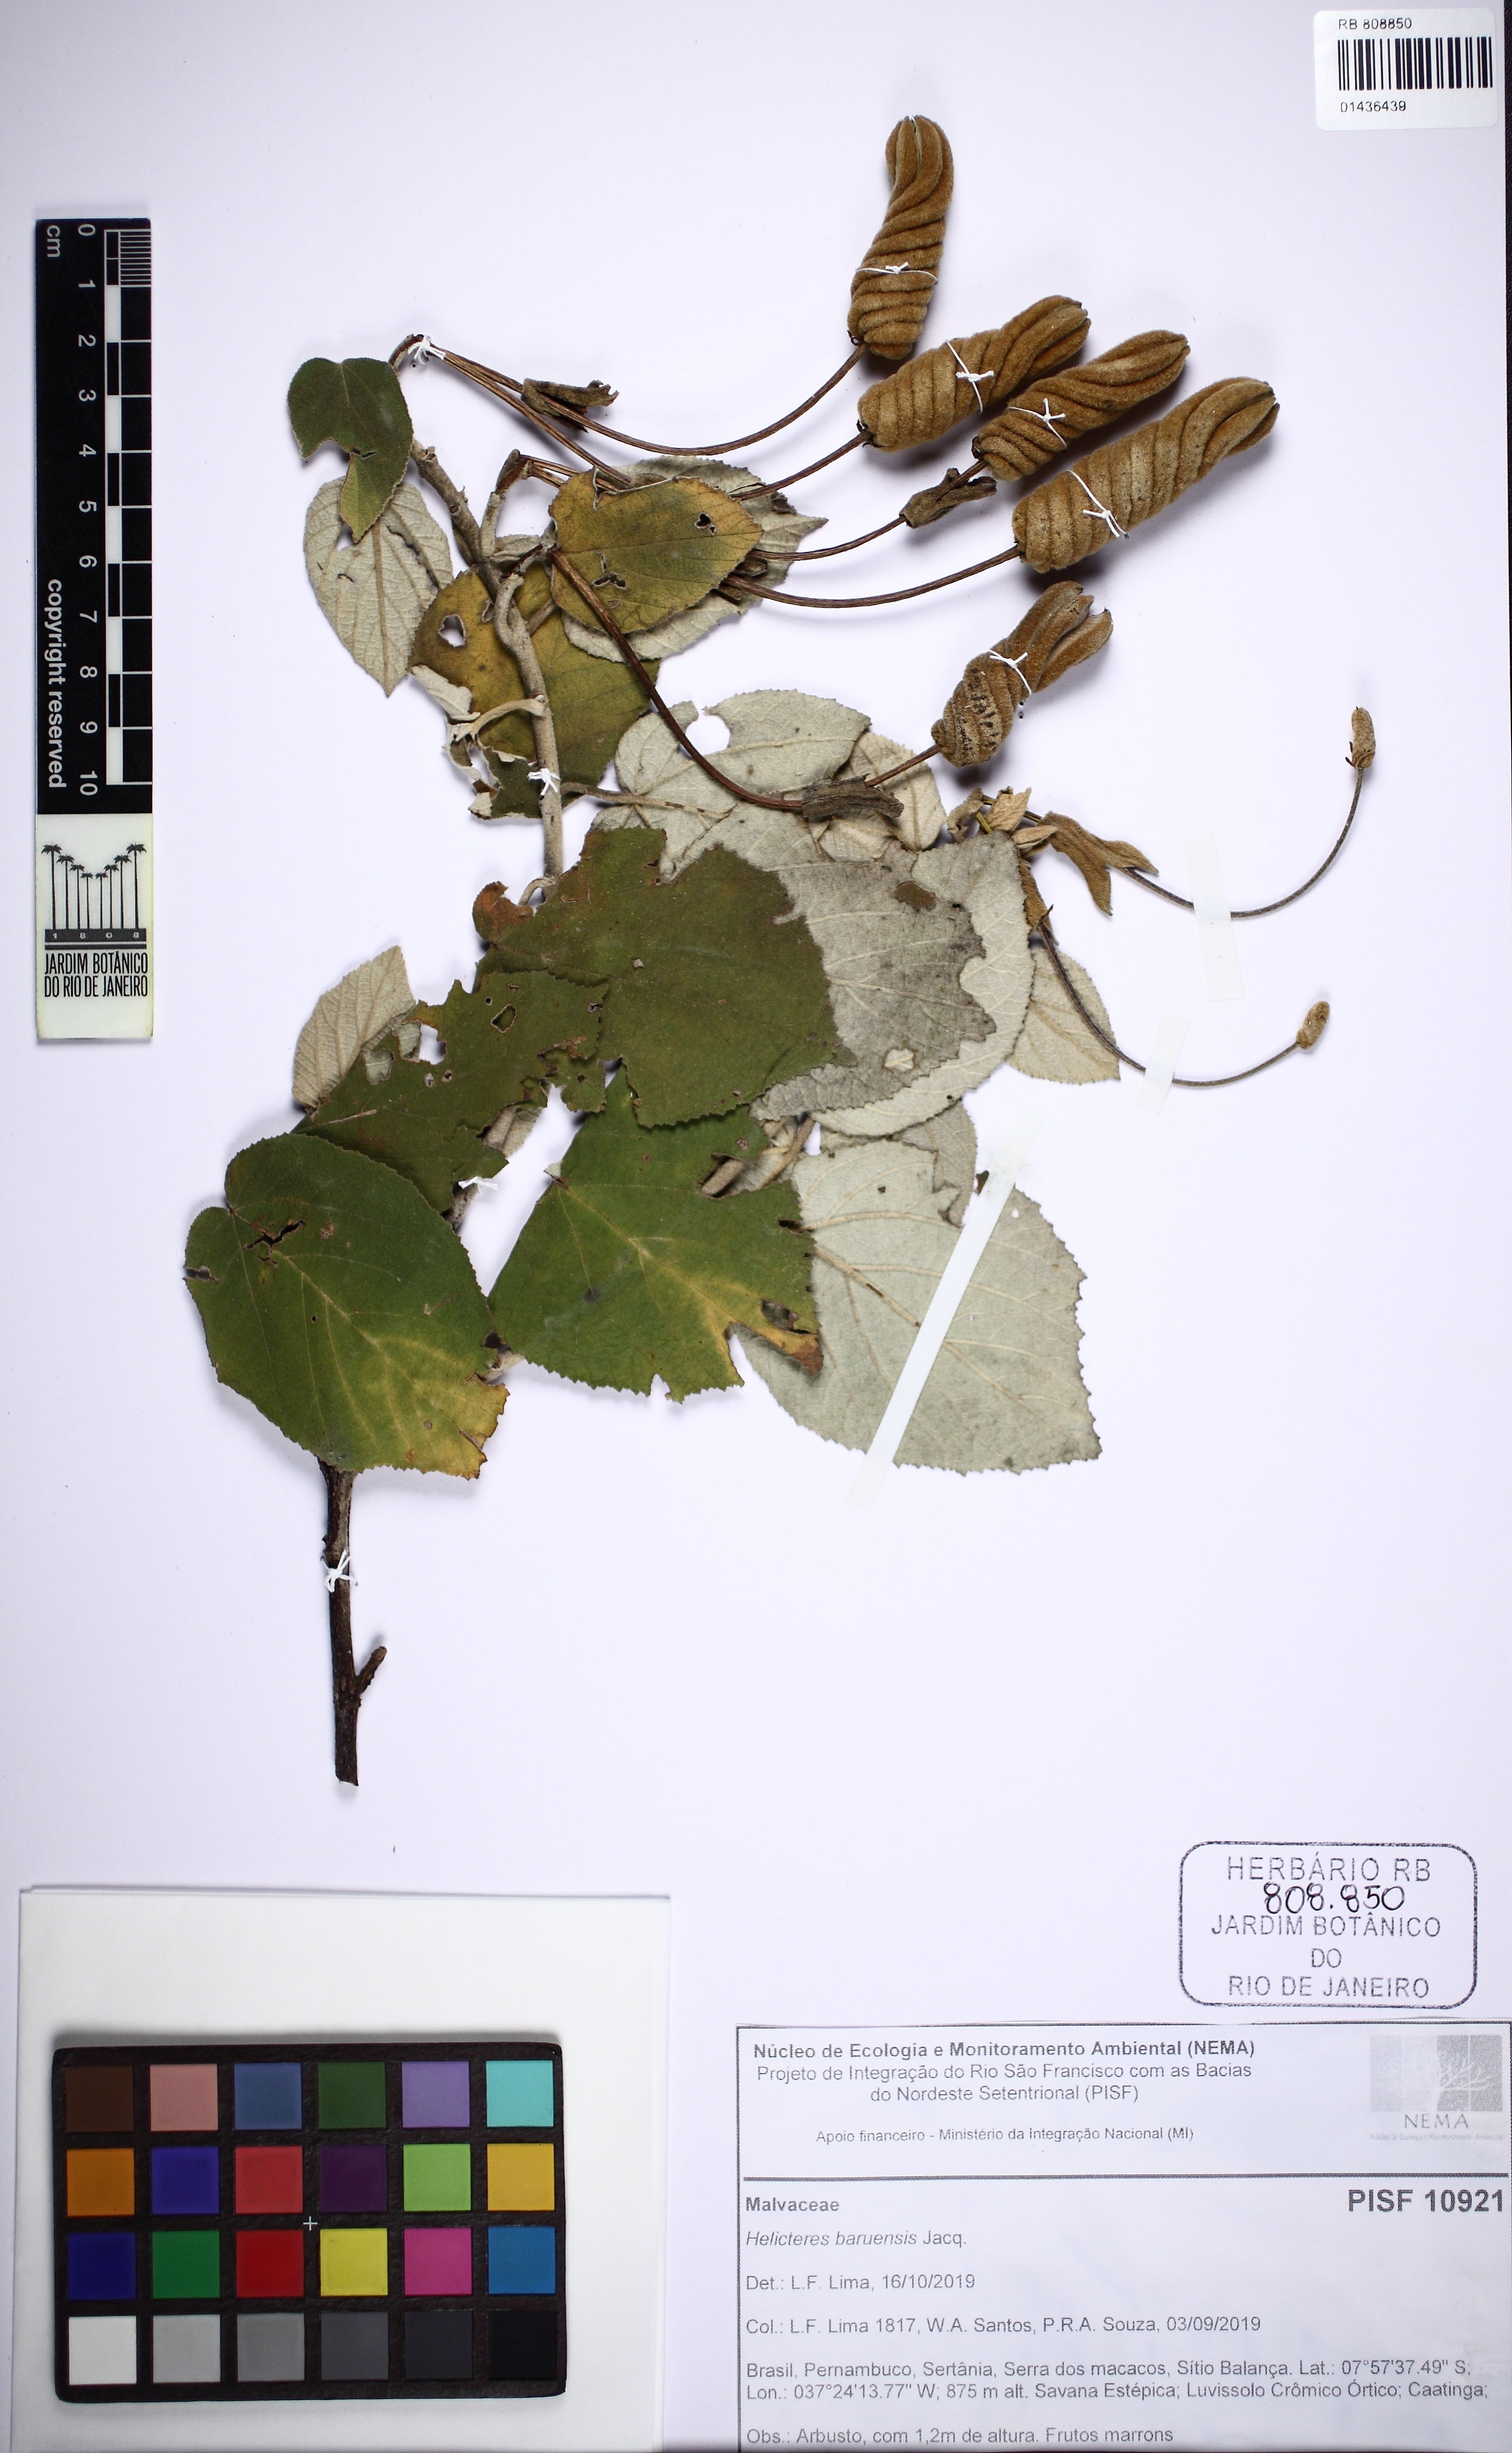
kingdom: Plantae
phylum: Tracheophyta
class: Magnoliopsida
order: Malvales
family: Malvaceae
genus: Helicteres
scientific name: Helicteres baruensis
